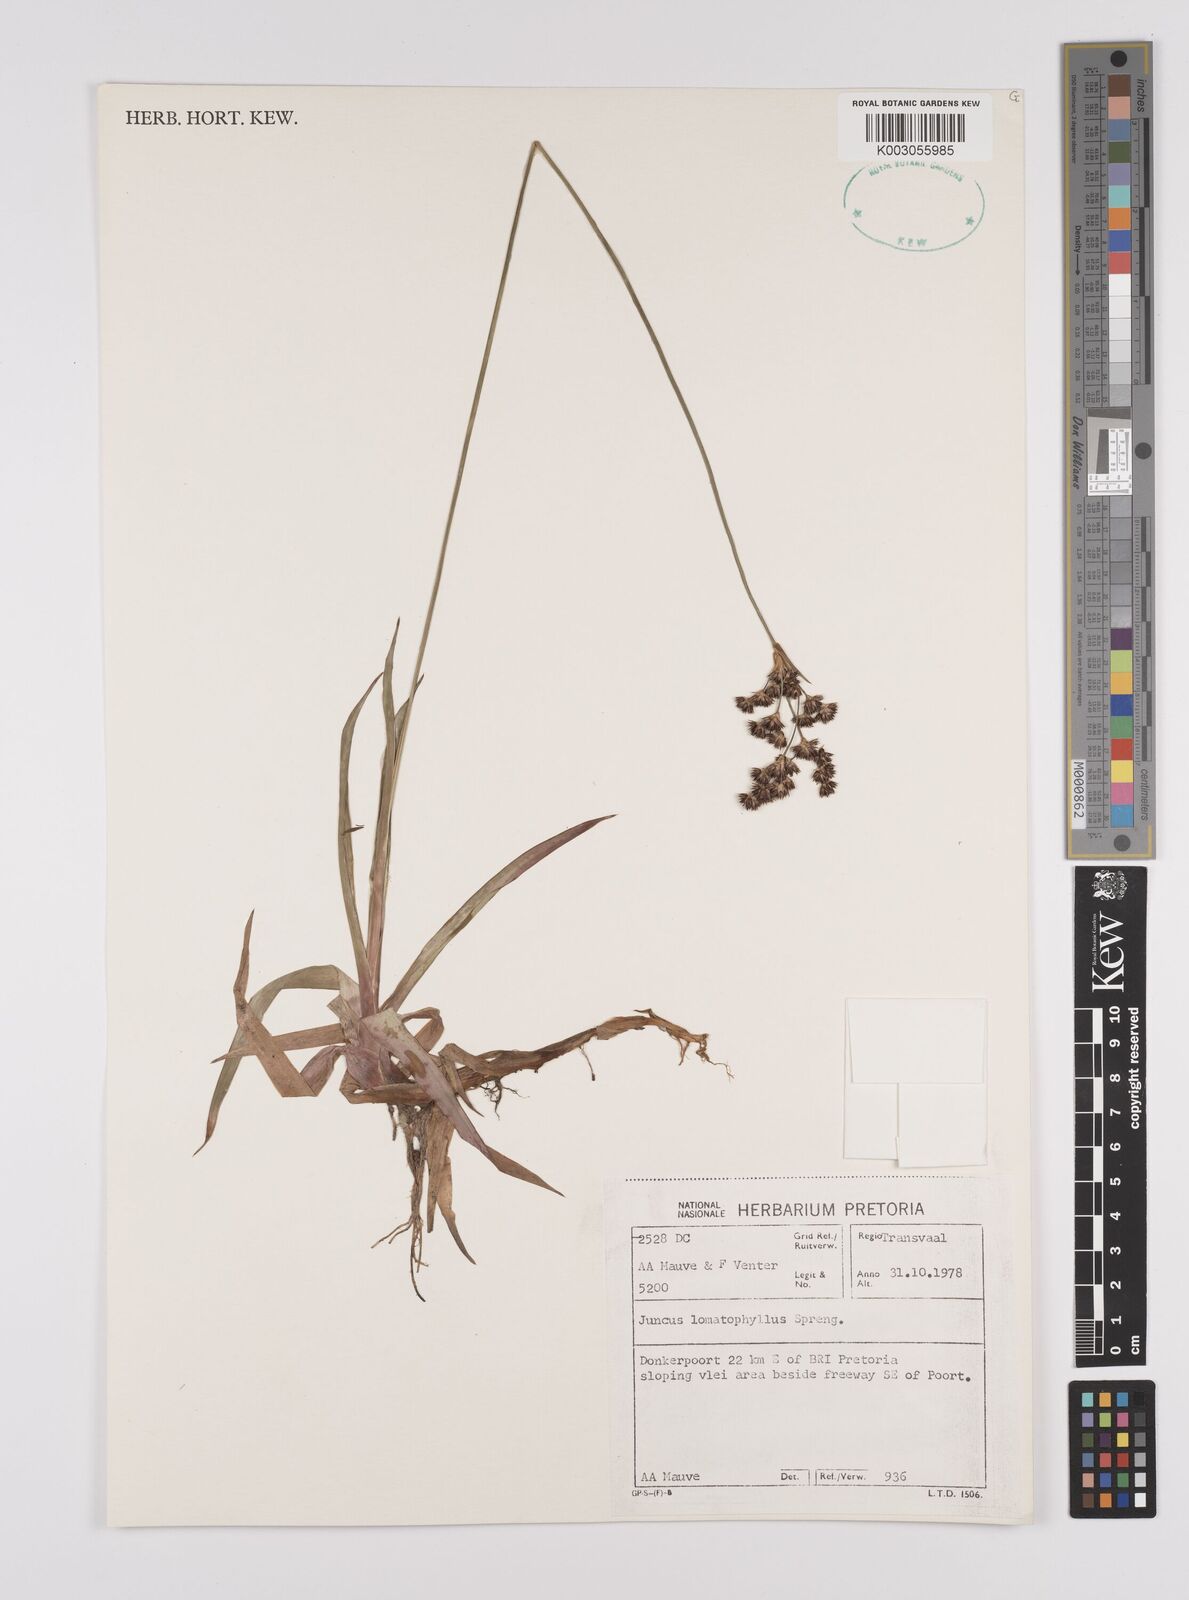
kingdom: Plantae
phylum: Tracheophyta
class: Liliopsida
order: Poales
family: Juncaceae
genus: Juncus
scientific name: Juncus lomatophyllus
